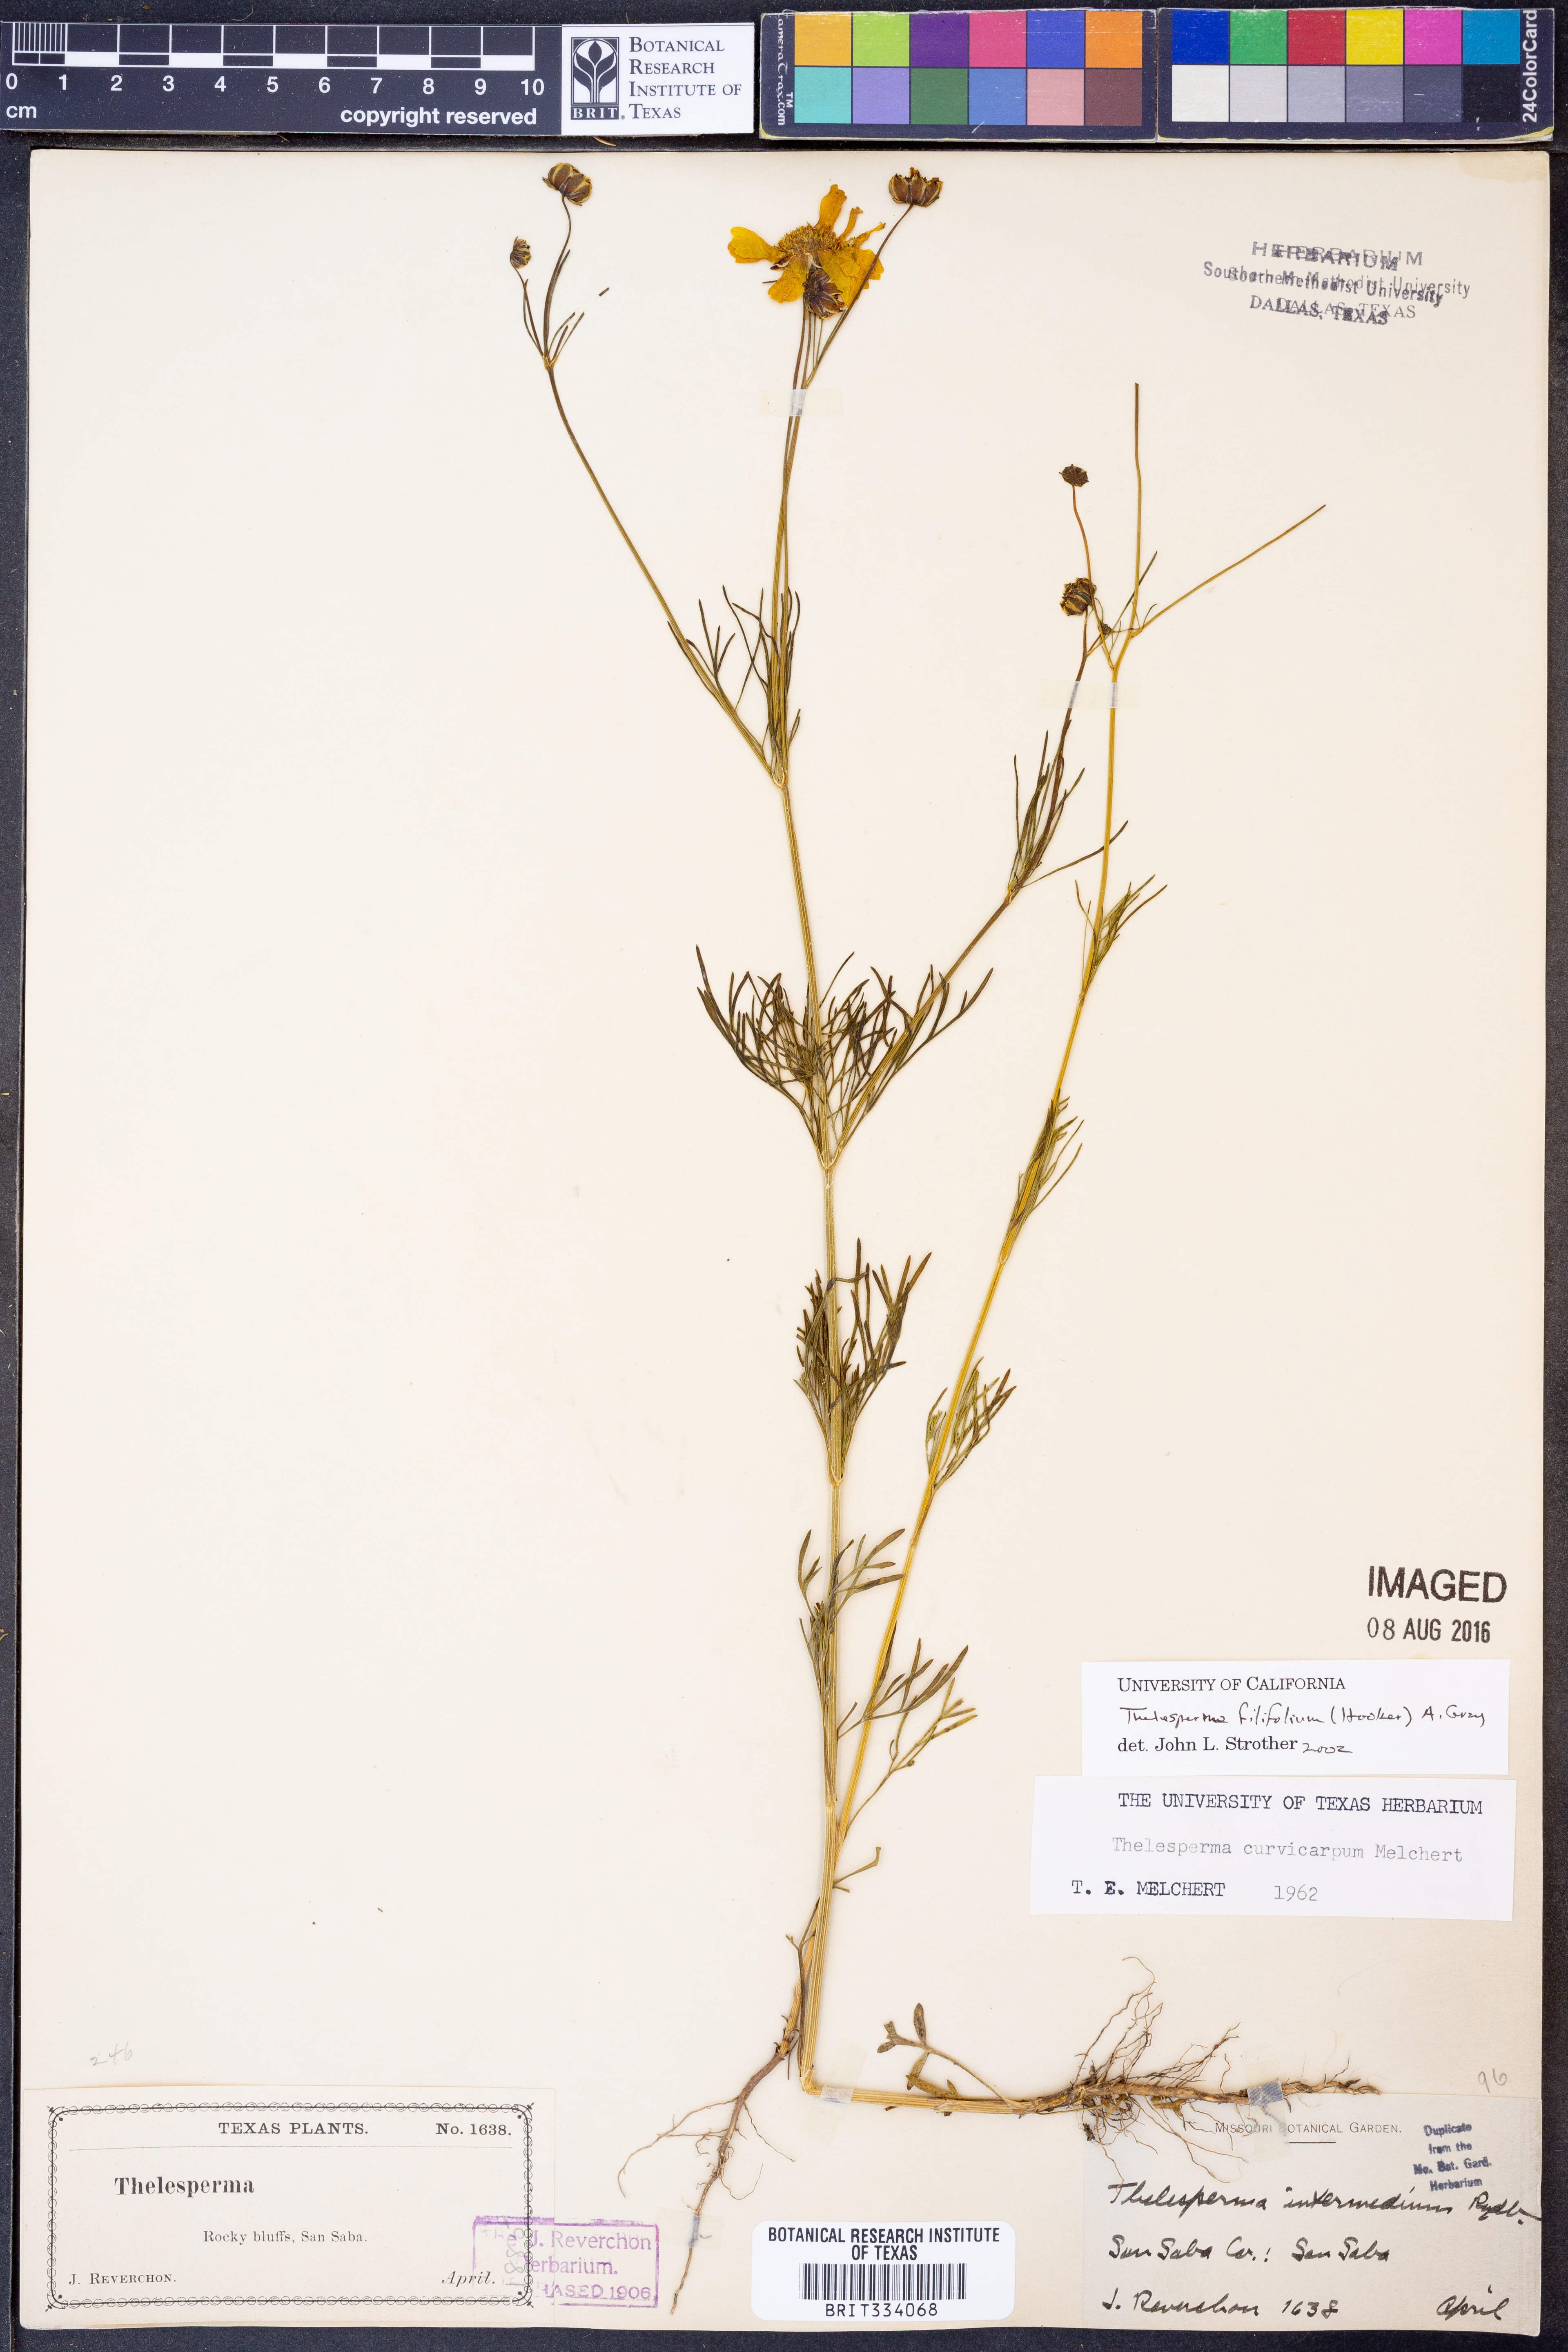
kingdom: Plantae
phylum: Tracheophyta
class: Magnoliopsida
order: Asterales
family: Asteraceae
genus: Thelesperma
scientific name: Thelesperma filifolium
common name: Stiff greenthread
